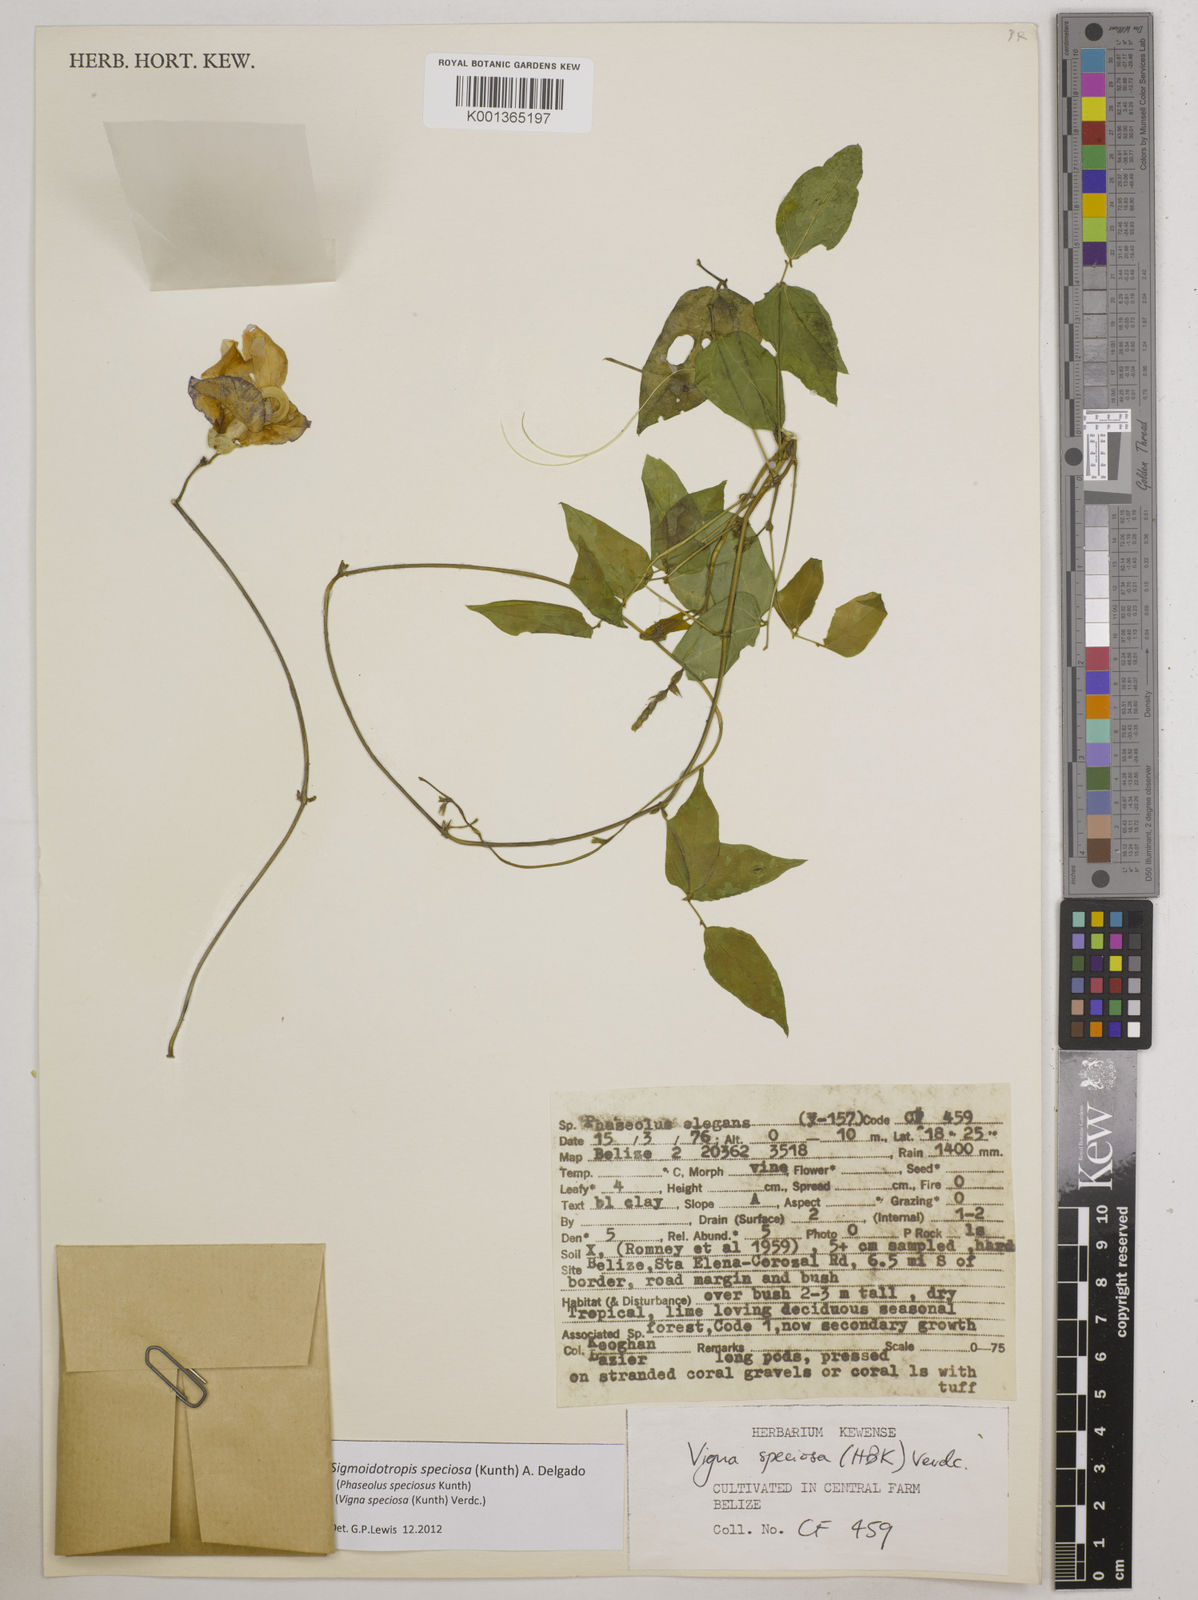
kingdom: Plantae
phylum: Tracheophyta
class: Magnoliopsida
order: Fabales
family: Fabaceae
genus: Sigmoidotropis
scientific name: Sigmoidotropis speciosa
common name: Snail flower
